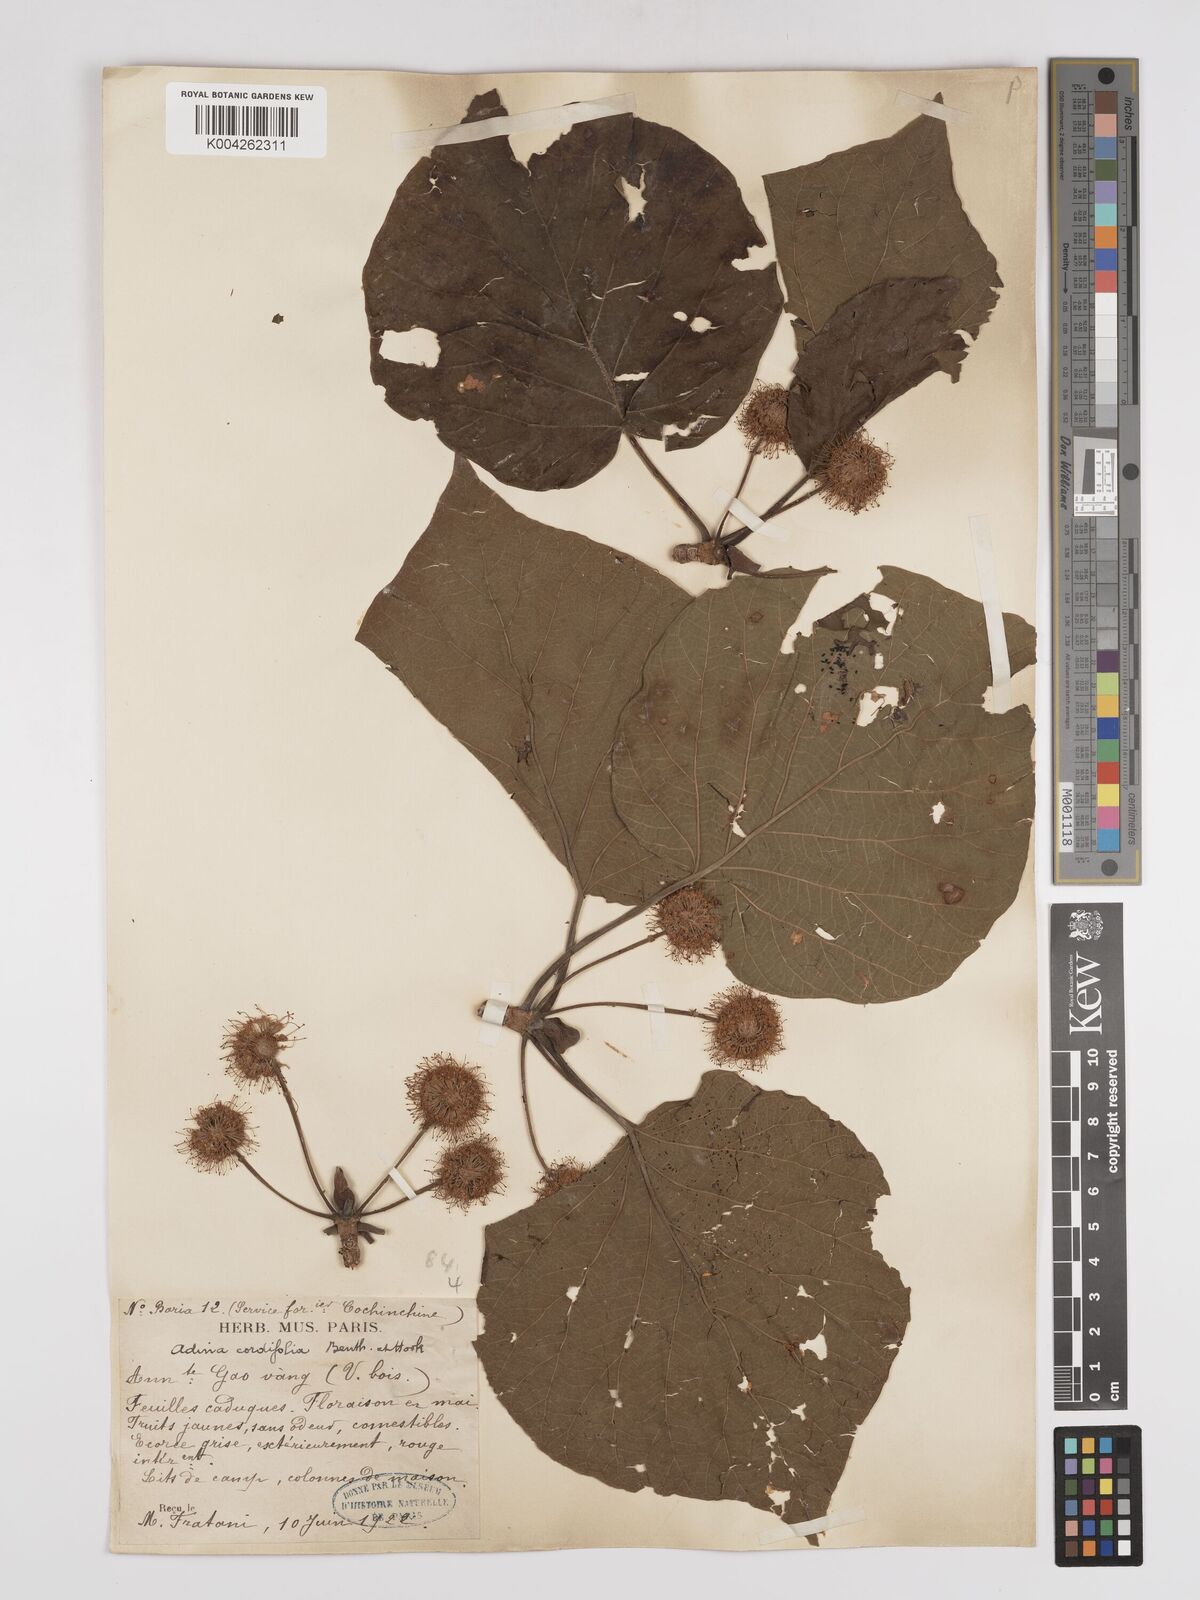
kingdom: Plantae
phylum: Tracheophyta
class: Magnoliopsida
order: Gentianales
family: Rubiaceae
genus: Adina
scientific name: Adina cordifolia
